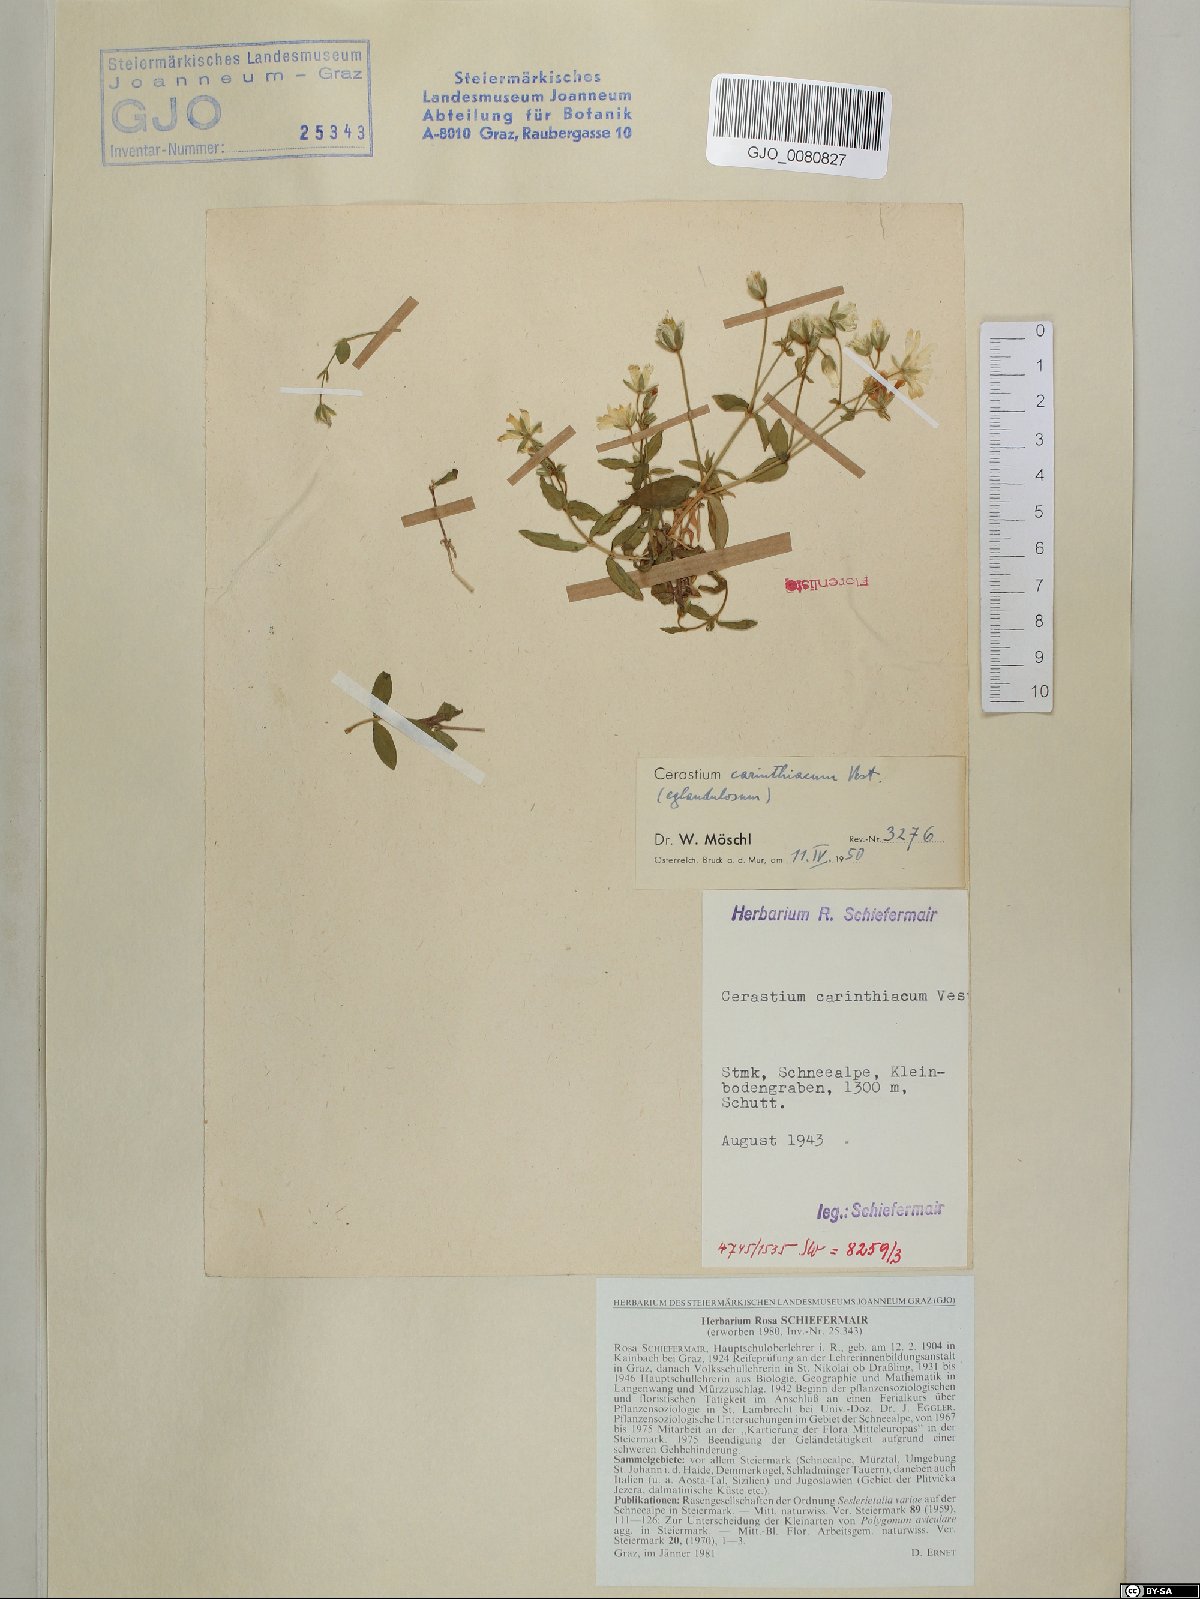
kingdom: Plantae
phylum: Tracheophyta
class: Magnoliopsida
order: Caryophyllales
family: Caryophyllaceae
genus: Cerastium
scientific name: Cerastium carinthiacum
